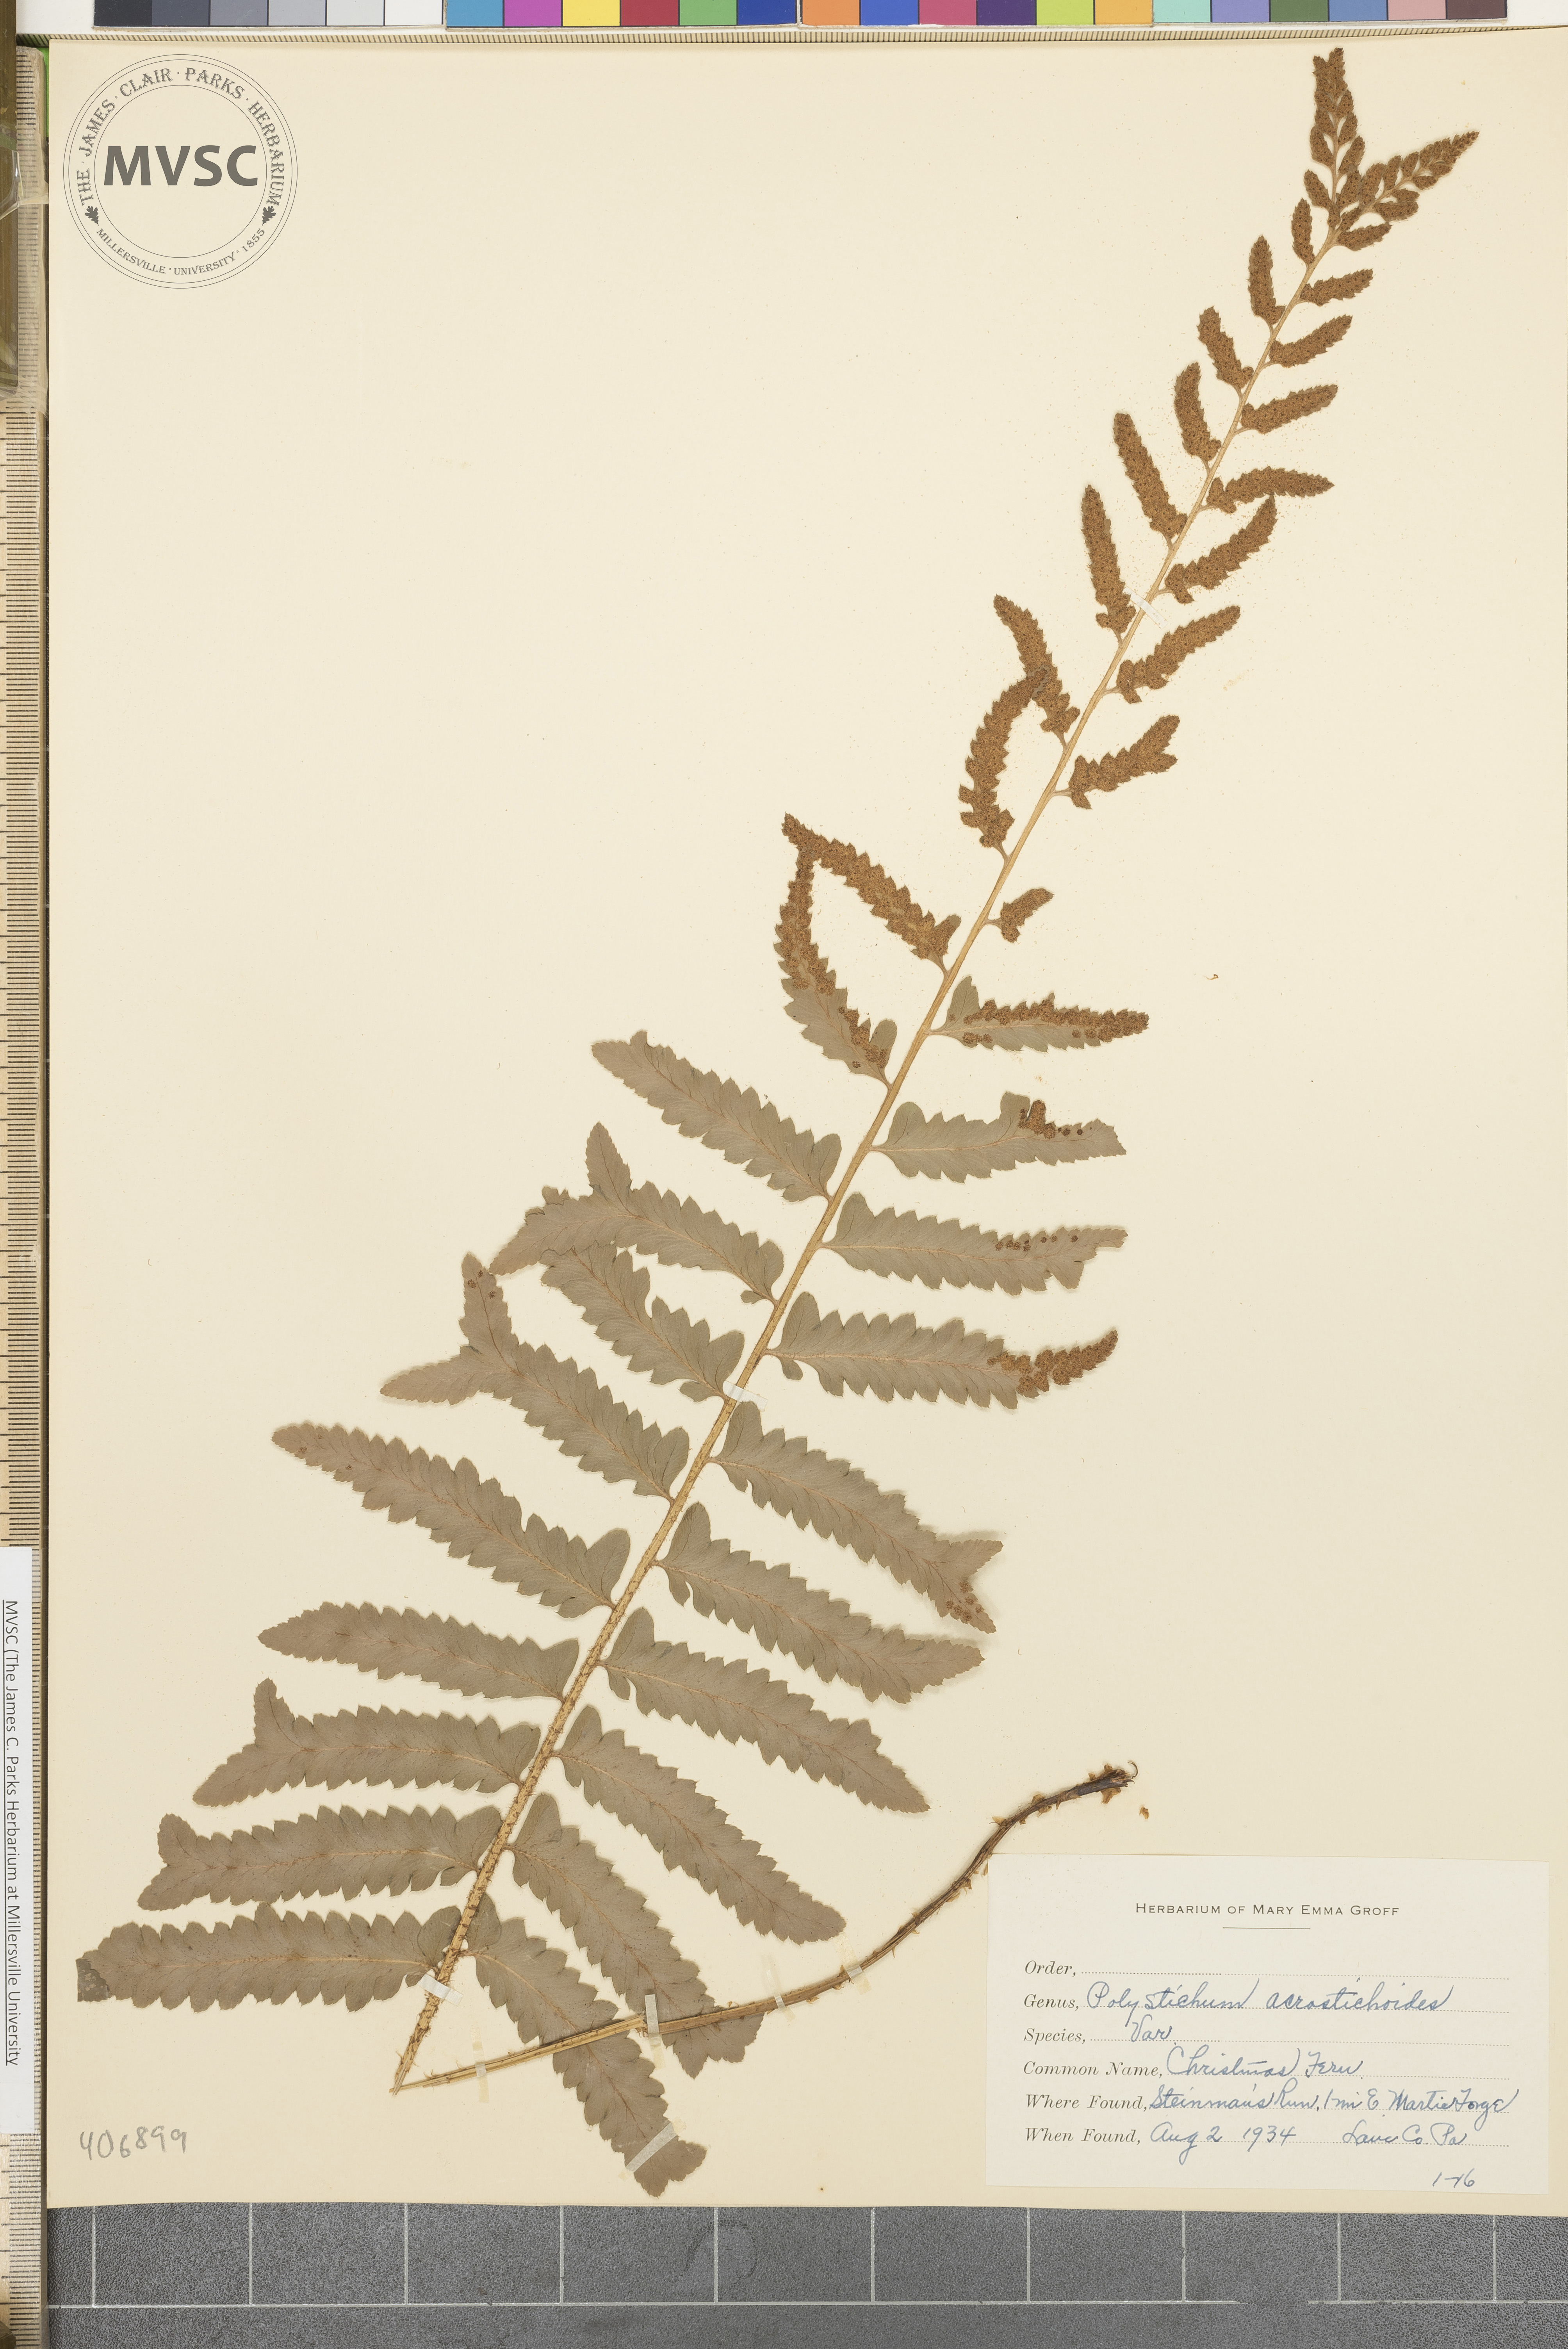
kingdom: Plantae
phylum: Tracheophyta
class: Polypodiopsida
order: Polypodiales
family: Dryopteridaceae
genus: Polystichum
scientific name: Polystichum acrostichoides
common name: Christmas fern
